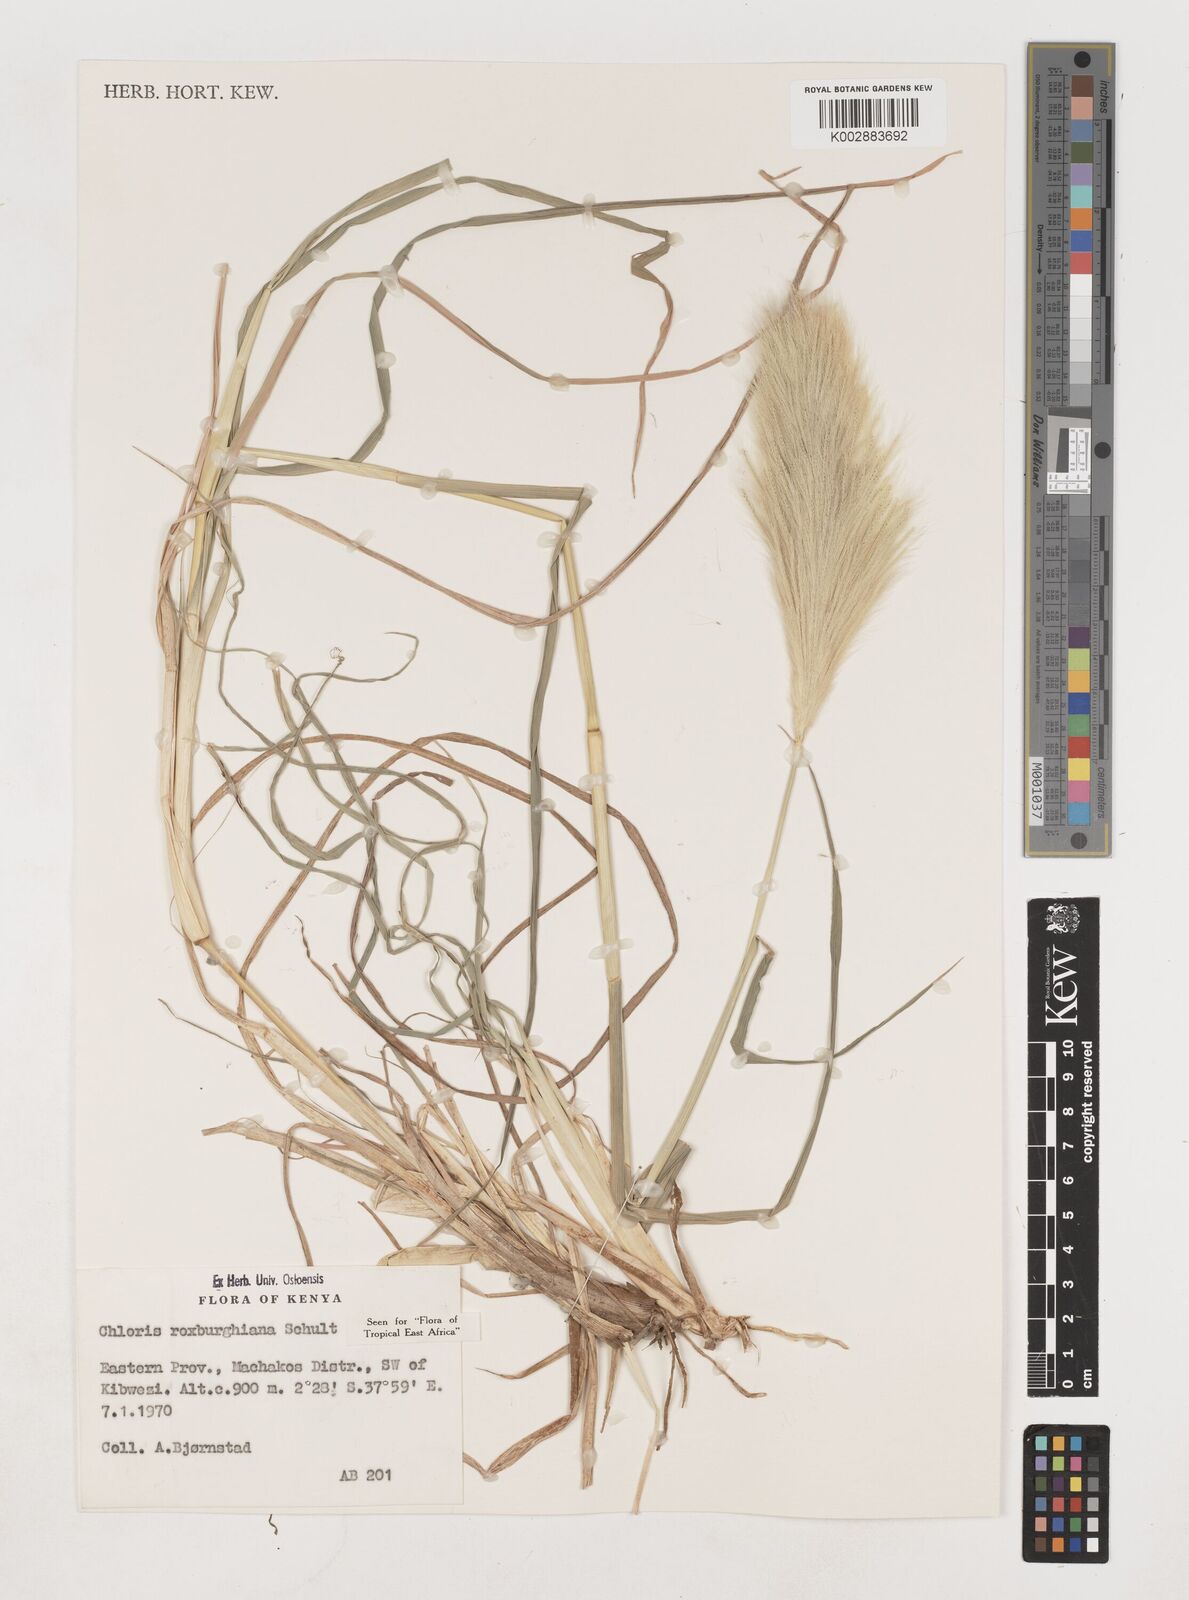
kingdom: Plantae
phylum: Tracheophyta
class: Liliopsida
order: Poales
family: Poaceae
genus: Tetrapogon
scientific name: Tetrapogon roxburghiana
